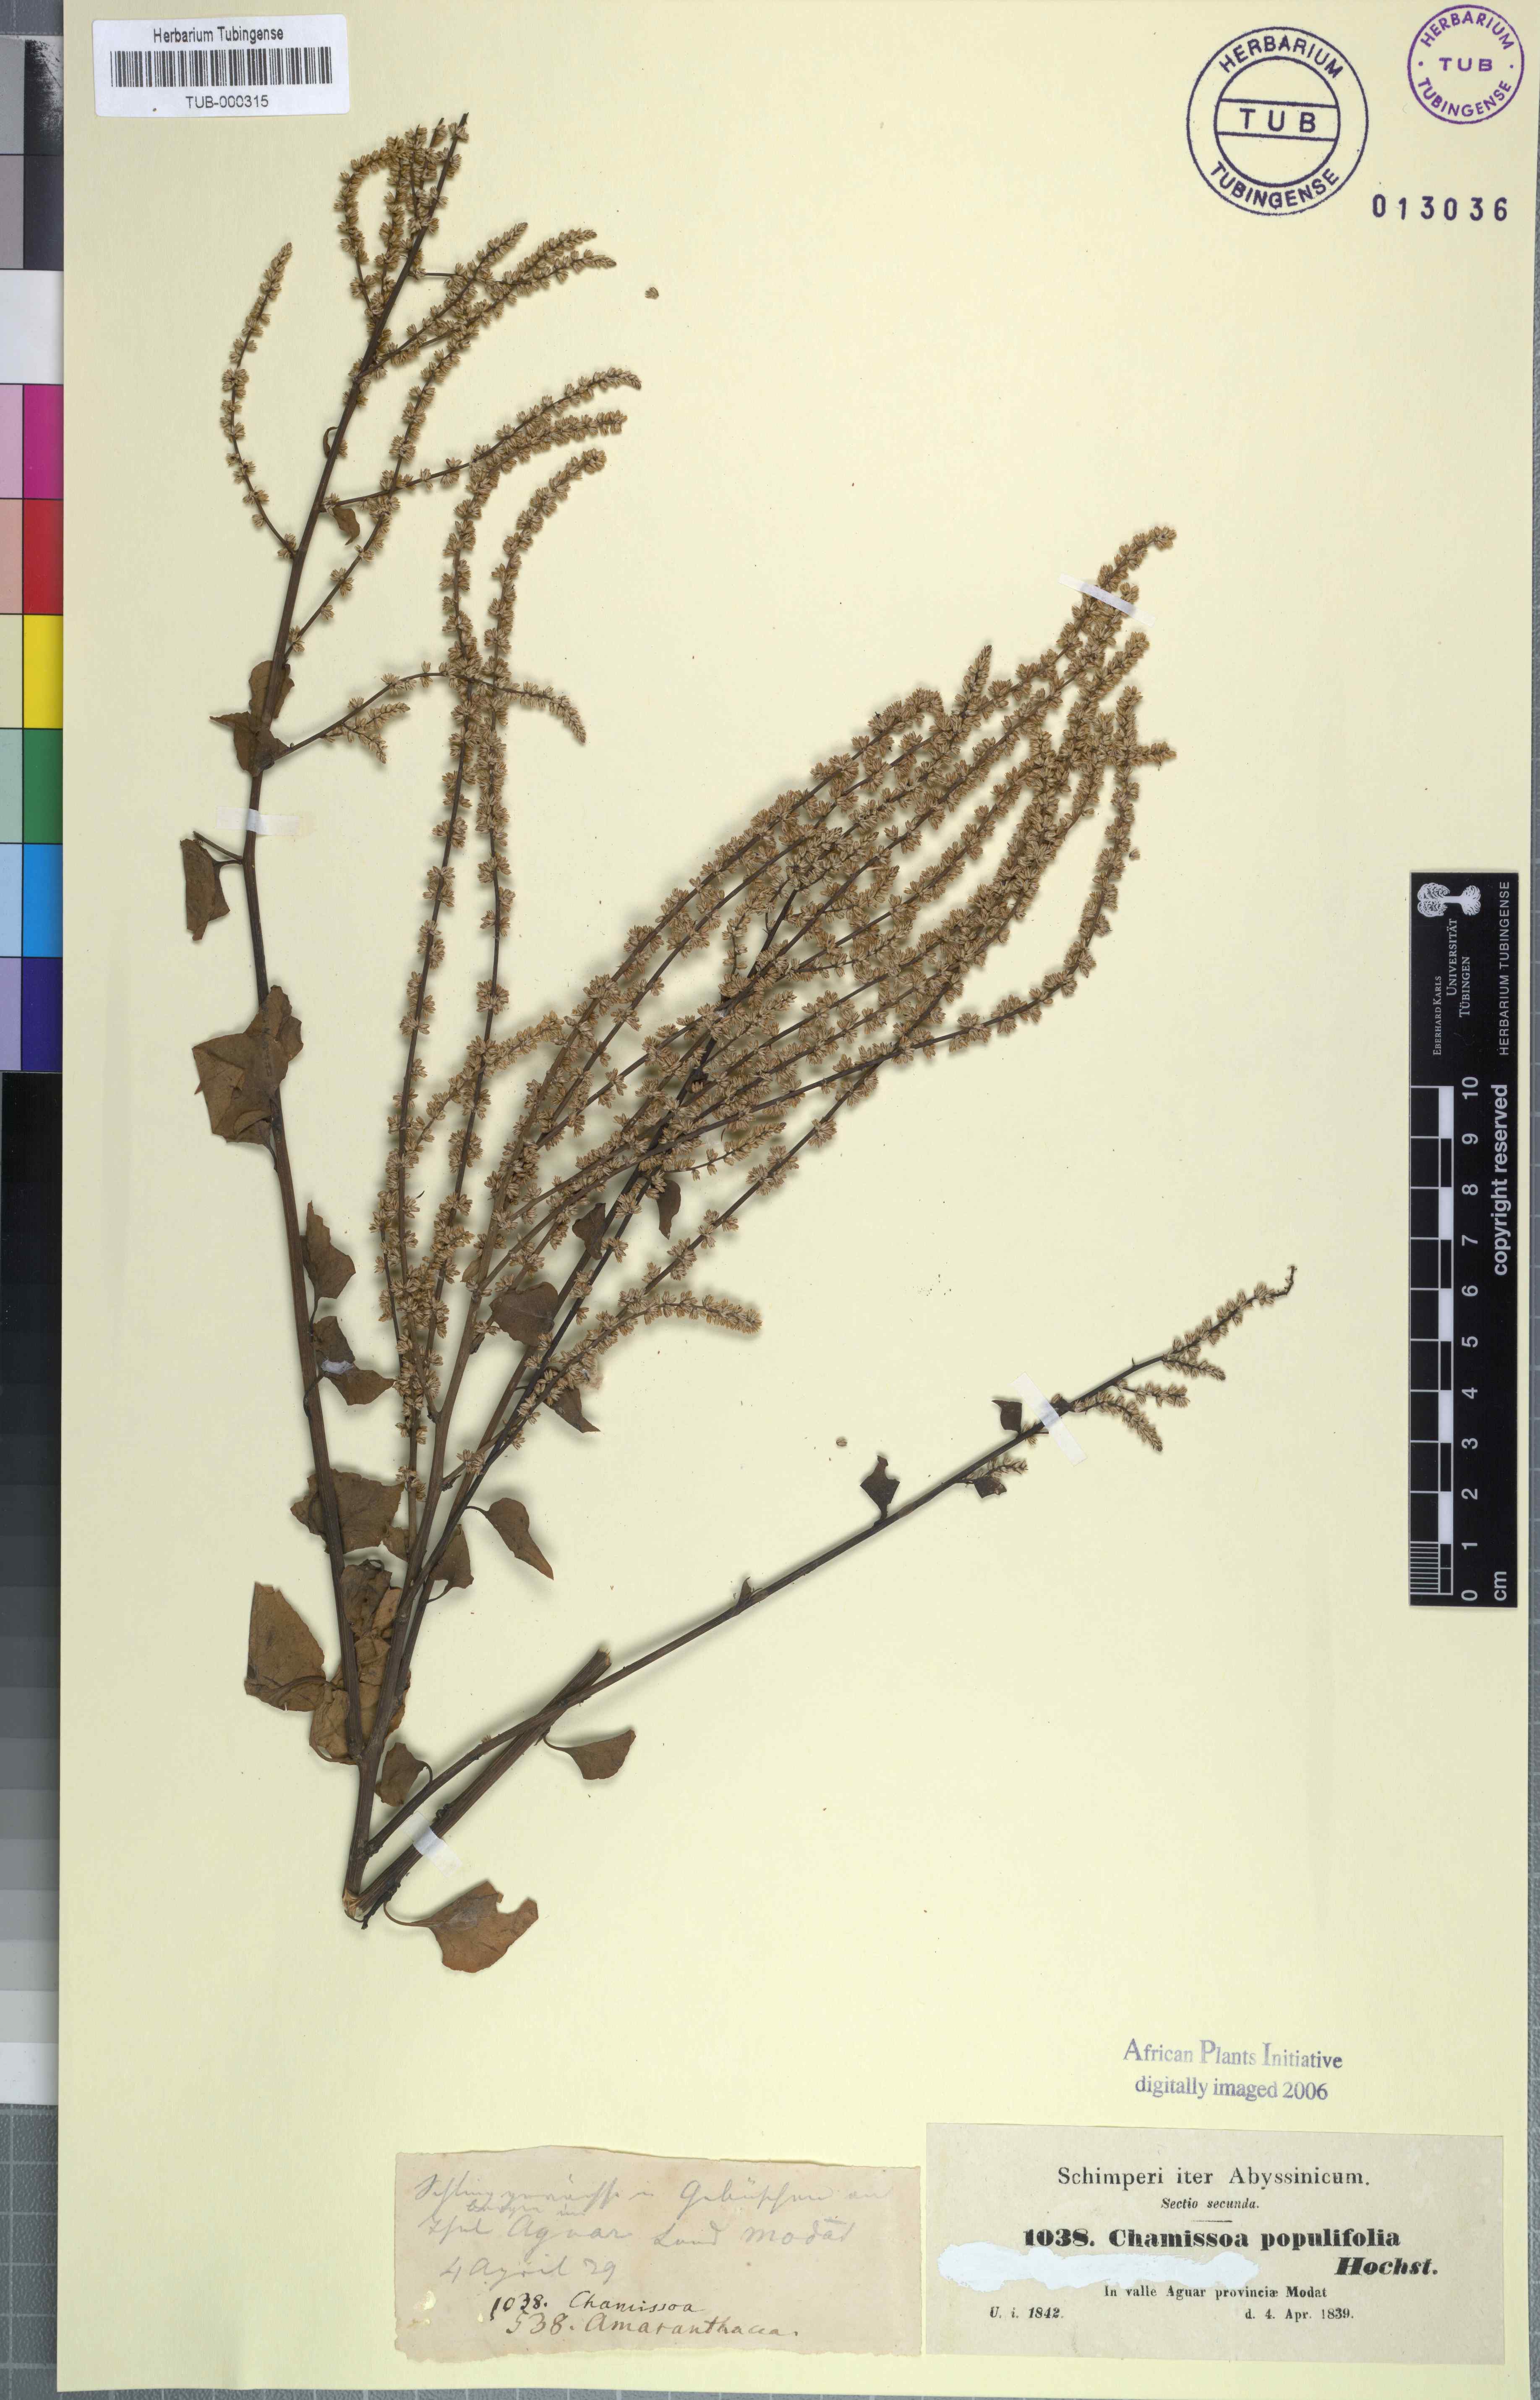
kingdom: Plantae
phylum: Tracheophyta
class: Magnoliopsida
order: Caryophyllales
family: Amaranthaceae
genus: Celosia
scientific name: Celosia polystachya
